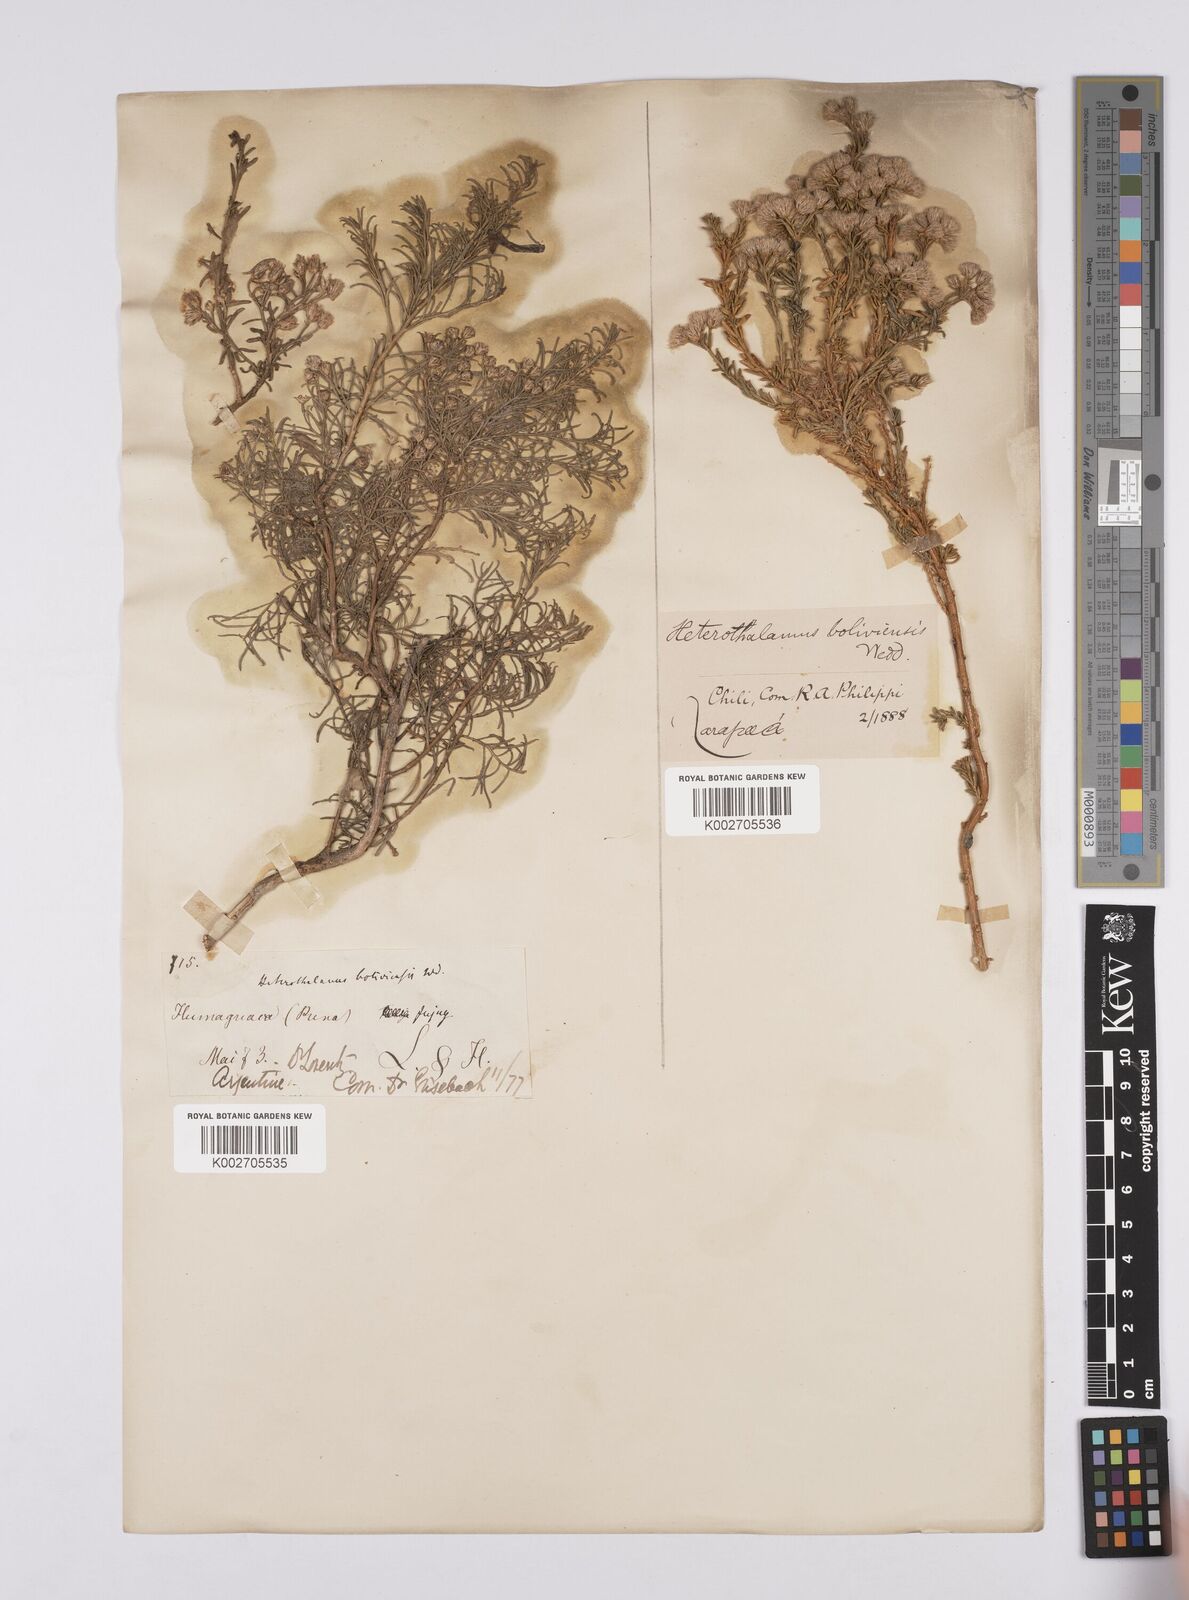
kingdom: Plantae
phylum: Tracheophyta
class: Magnoliopsida
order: Asterales
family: Asteraceae
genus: Baccharis
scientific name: Baccharis bolivensis
